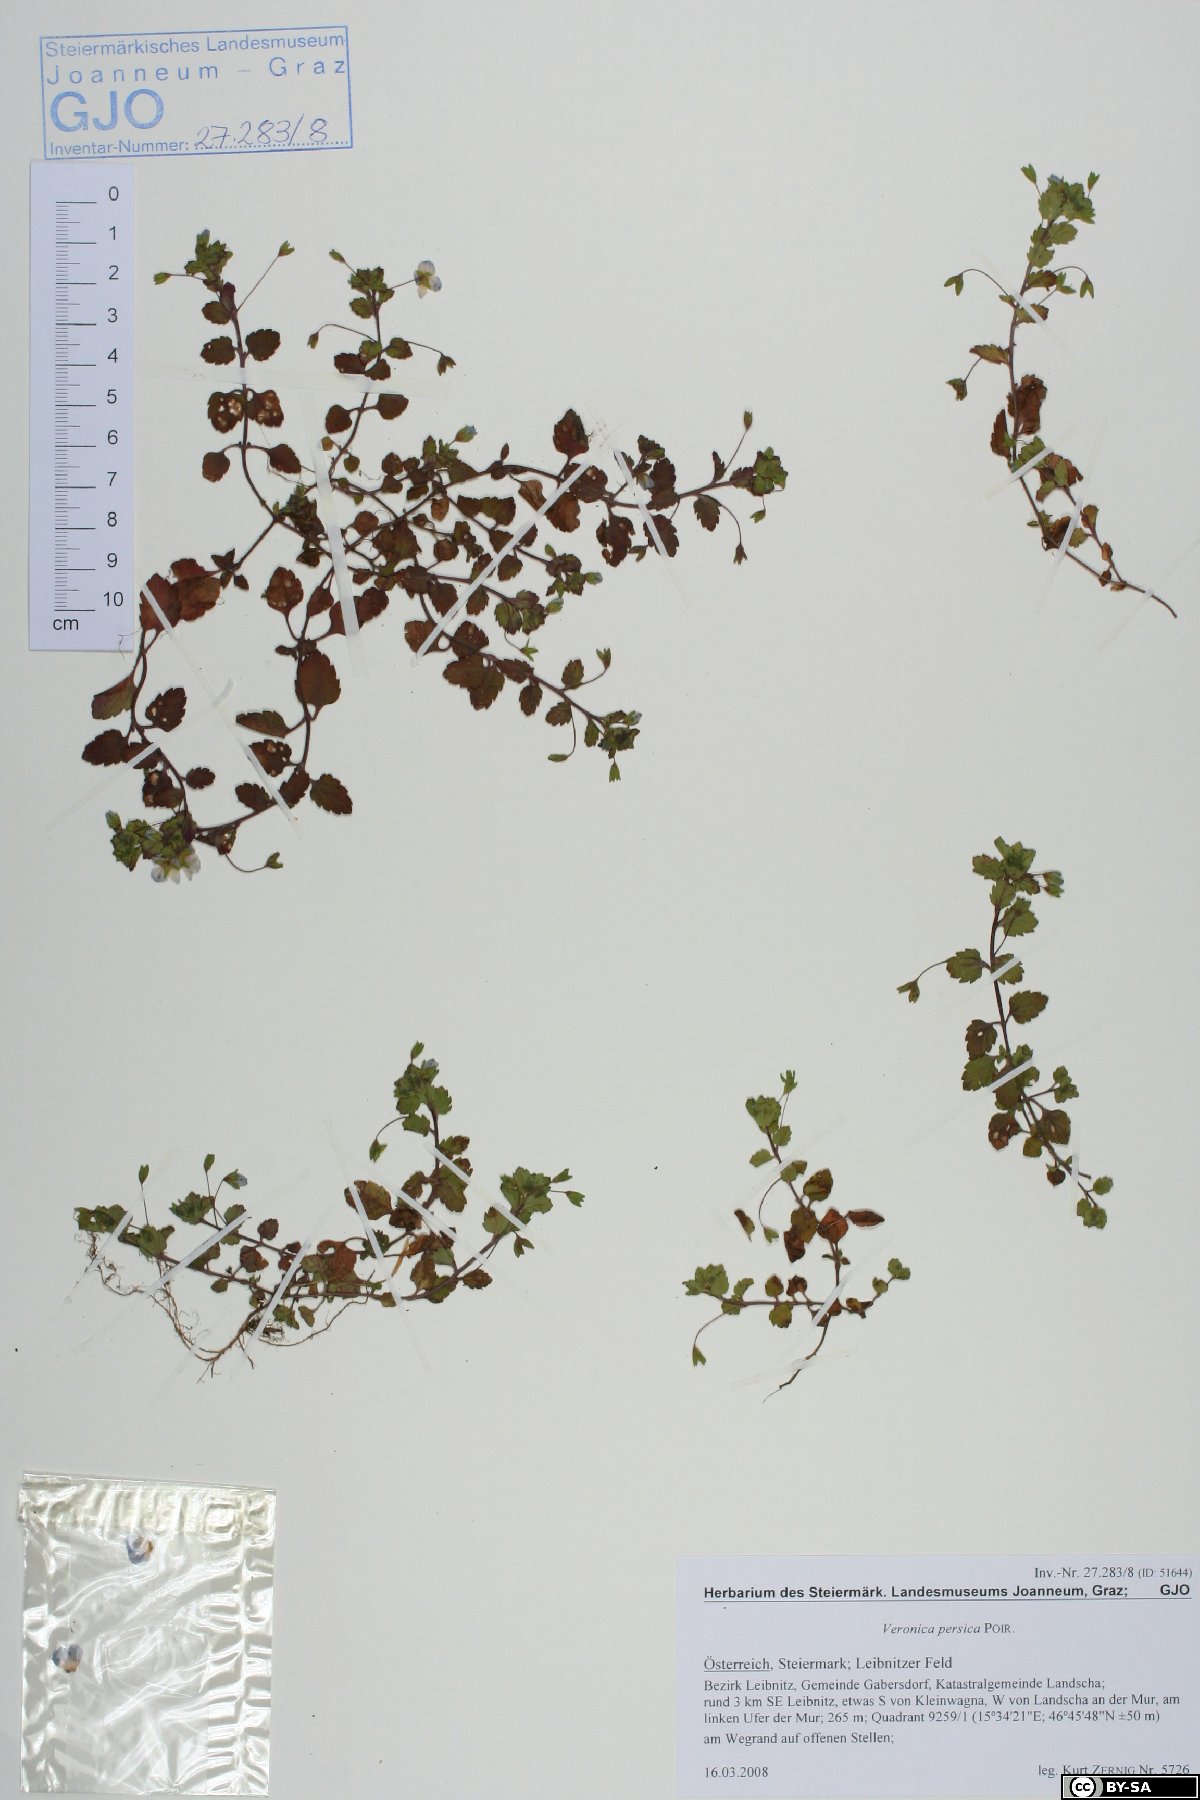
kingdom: Plantae
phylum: Tracheophyta
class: Magnoliopsida
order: Lamiales
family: Plantaginaceae
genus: Veronica
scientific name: Veronica persica
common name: Common field-speedwell
